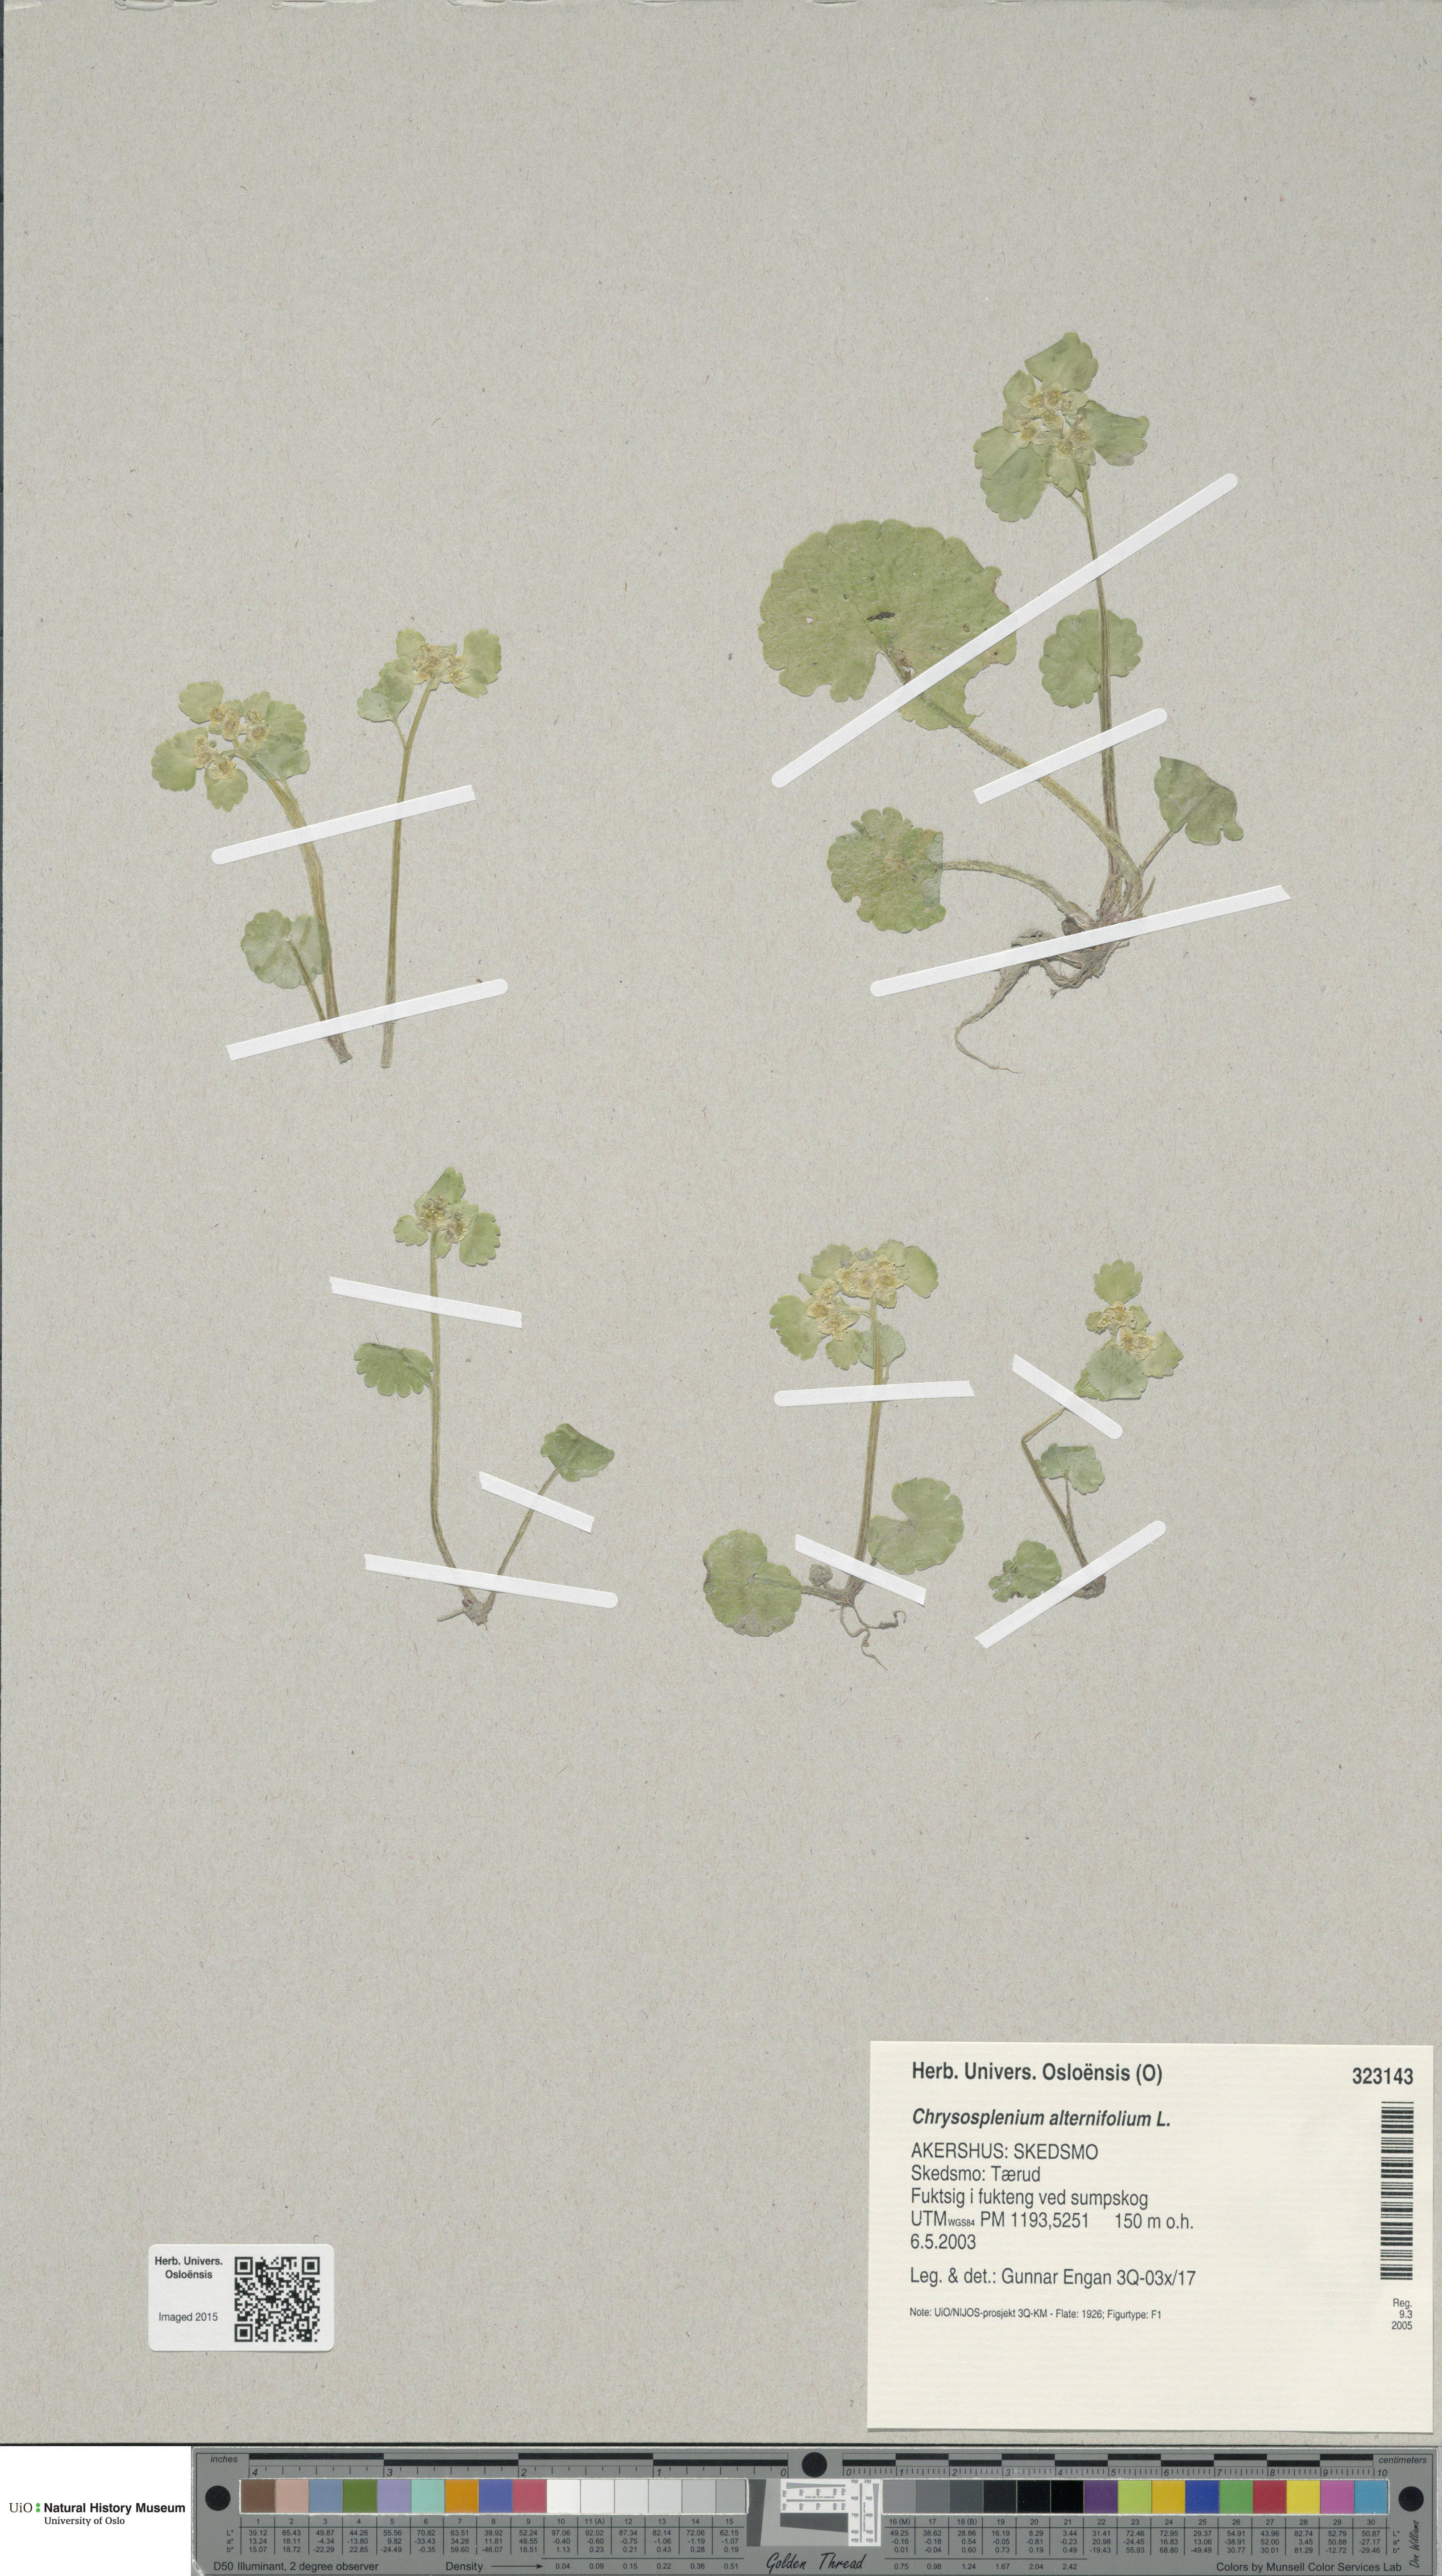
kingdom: Plantae
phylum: Tracheophyta
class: Magnoliopsida
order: Saxifragales
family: Saxifragaceae
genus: Chrysosplenium
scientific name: Chrysosplenium alternifolium
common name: Alternate-leaved golden-saxifrage
